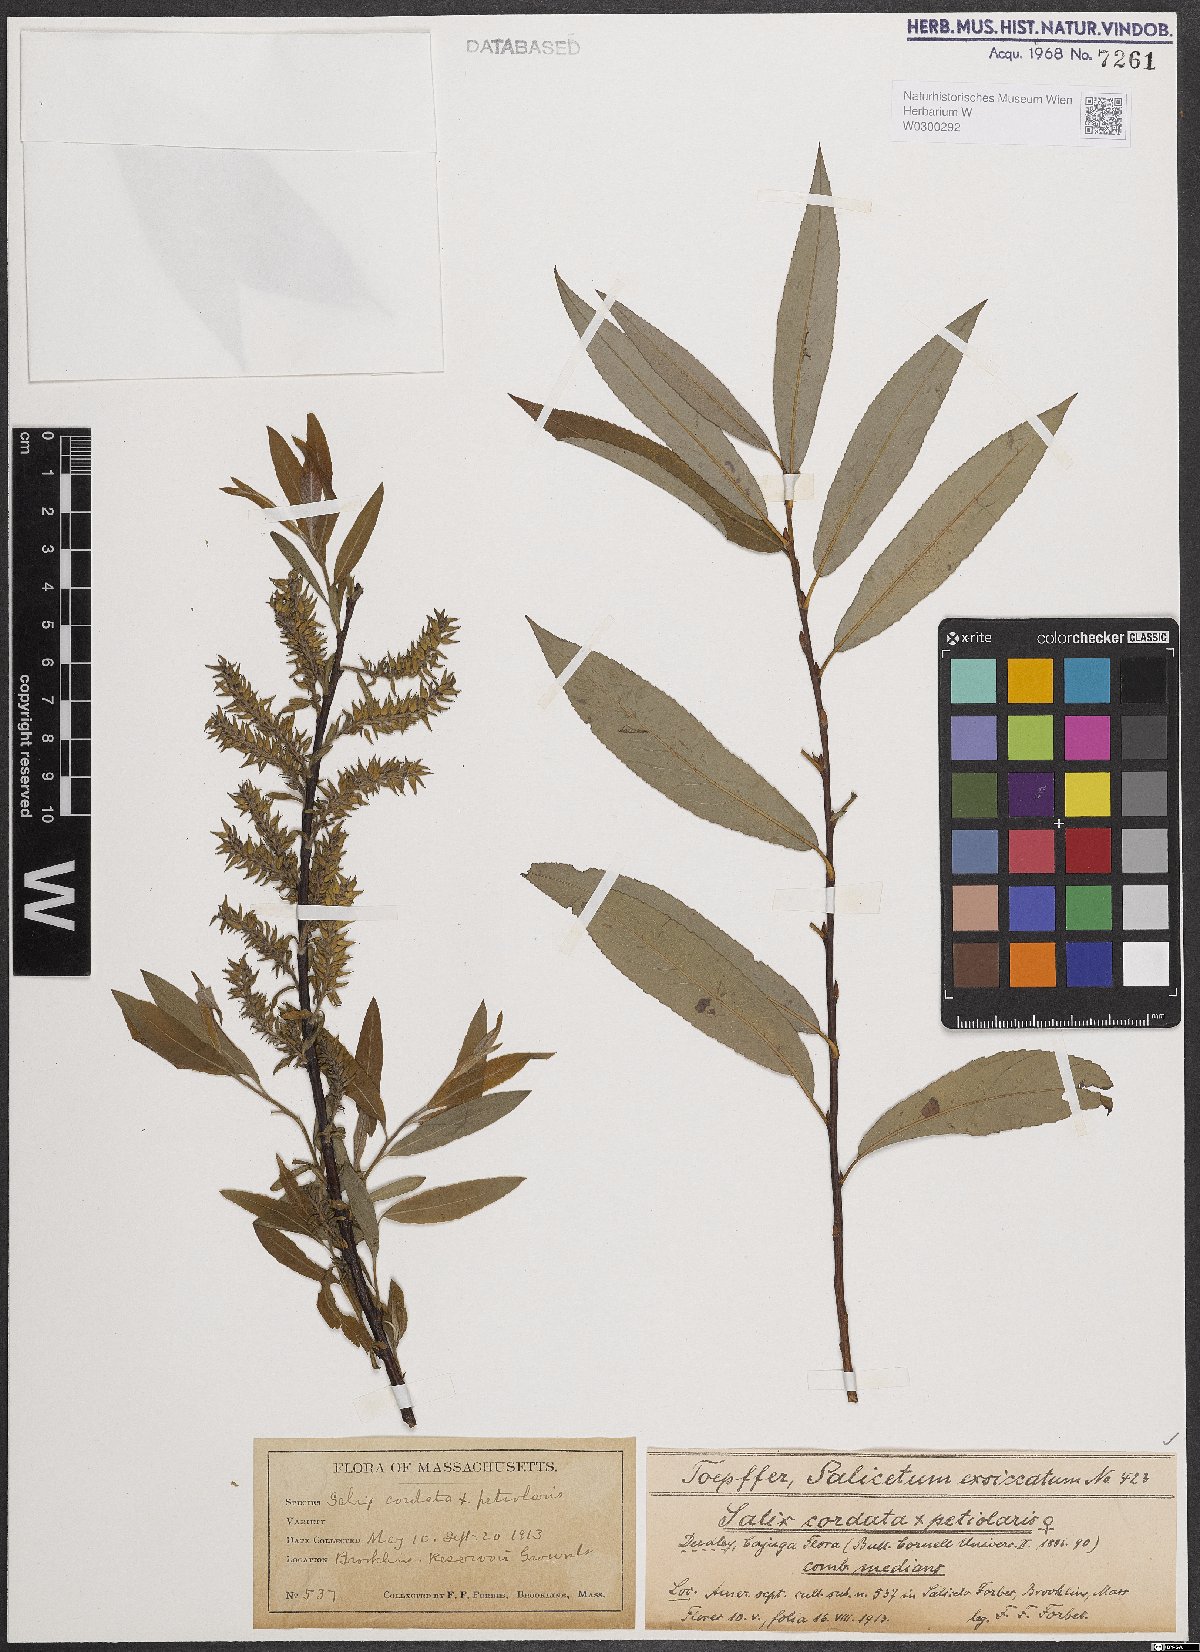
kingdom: Plantae
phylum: Tracheophyta
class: Magnoliopsida
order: Malpighiales
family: Salicaceae
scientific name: Salicaceae
